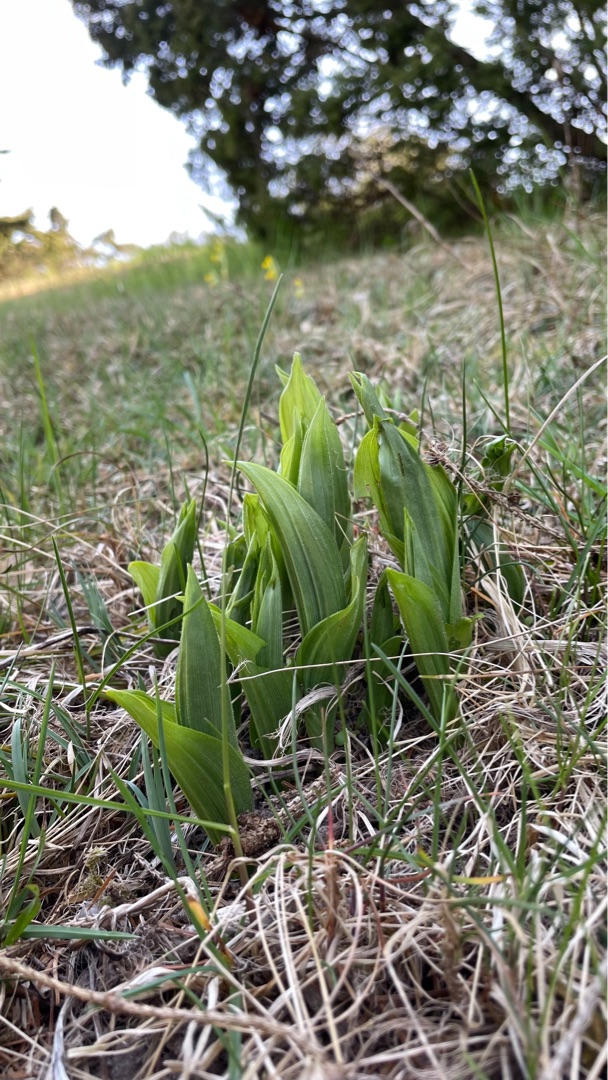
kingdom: Plantae
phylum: Tracheophyta
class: Liliopsida
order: Asparagales
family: Orchidaceae
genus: Cypripedium
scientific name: Cypripedium calceolus
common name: Fruesko
